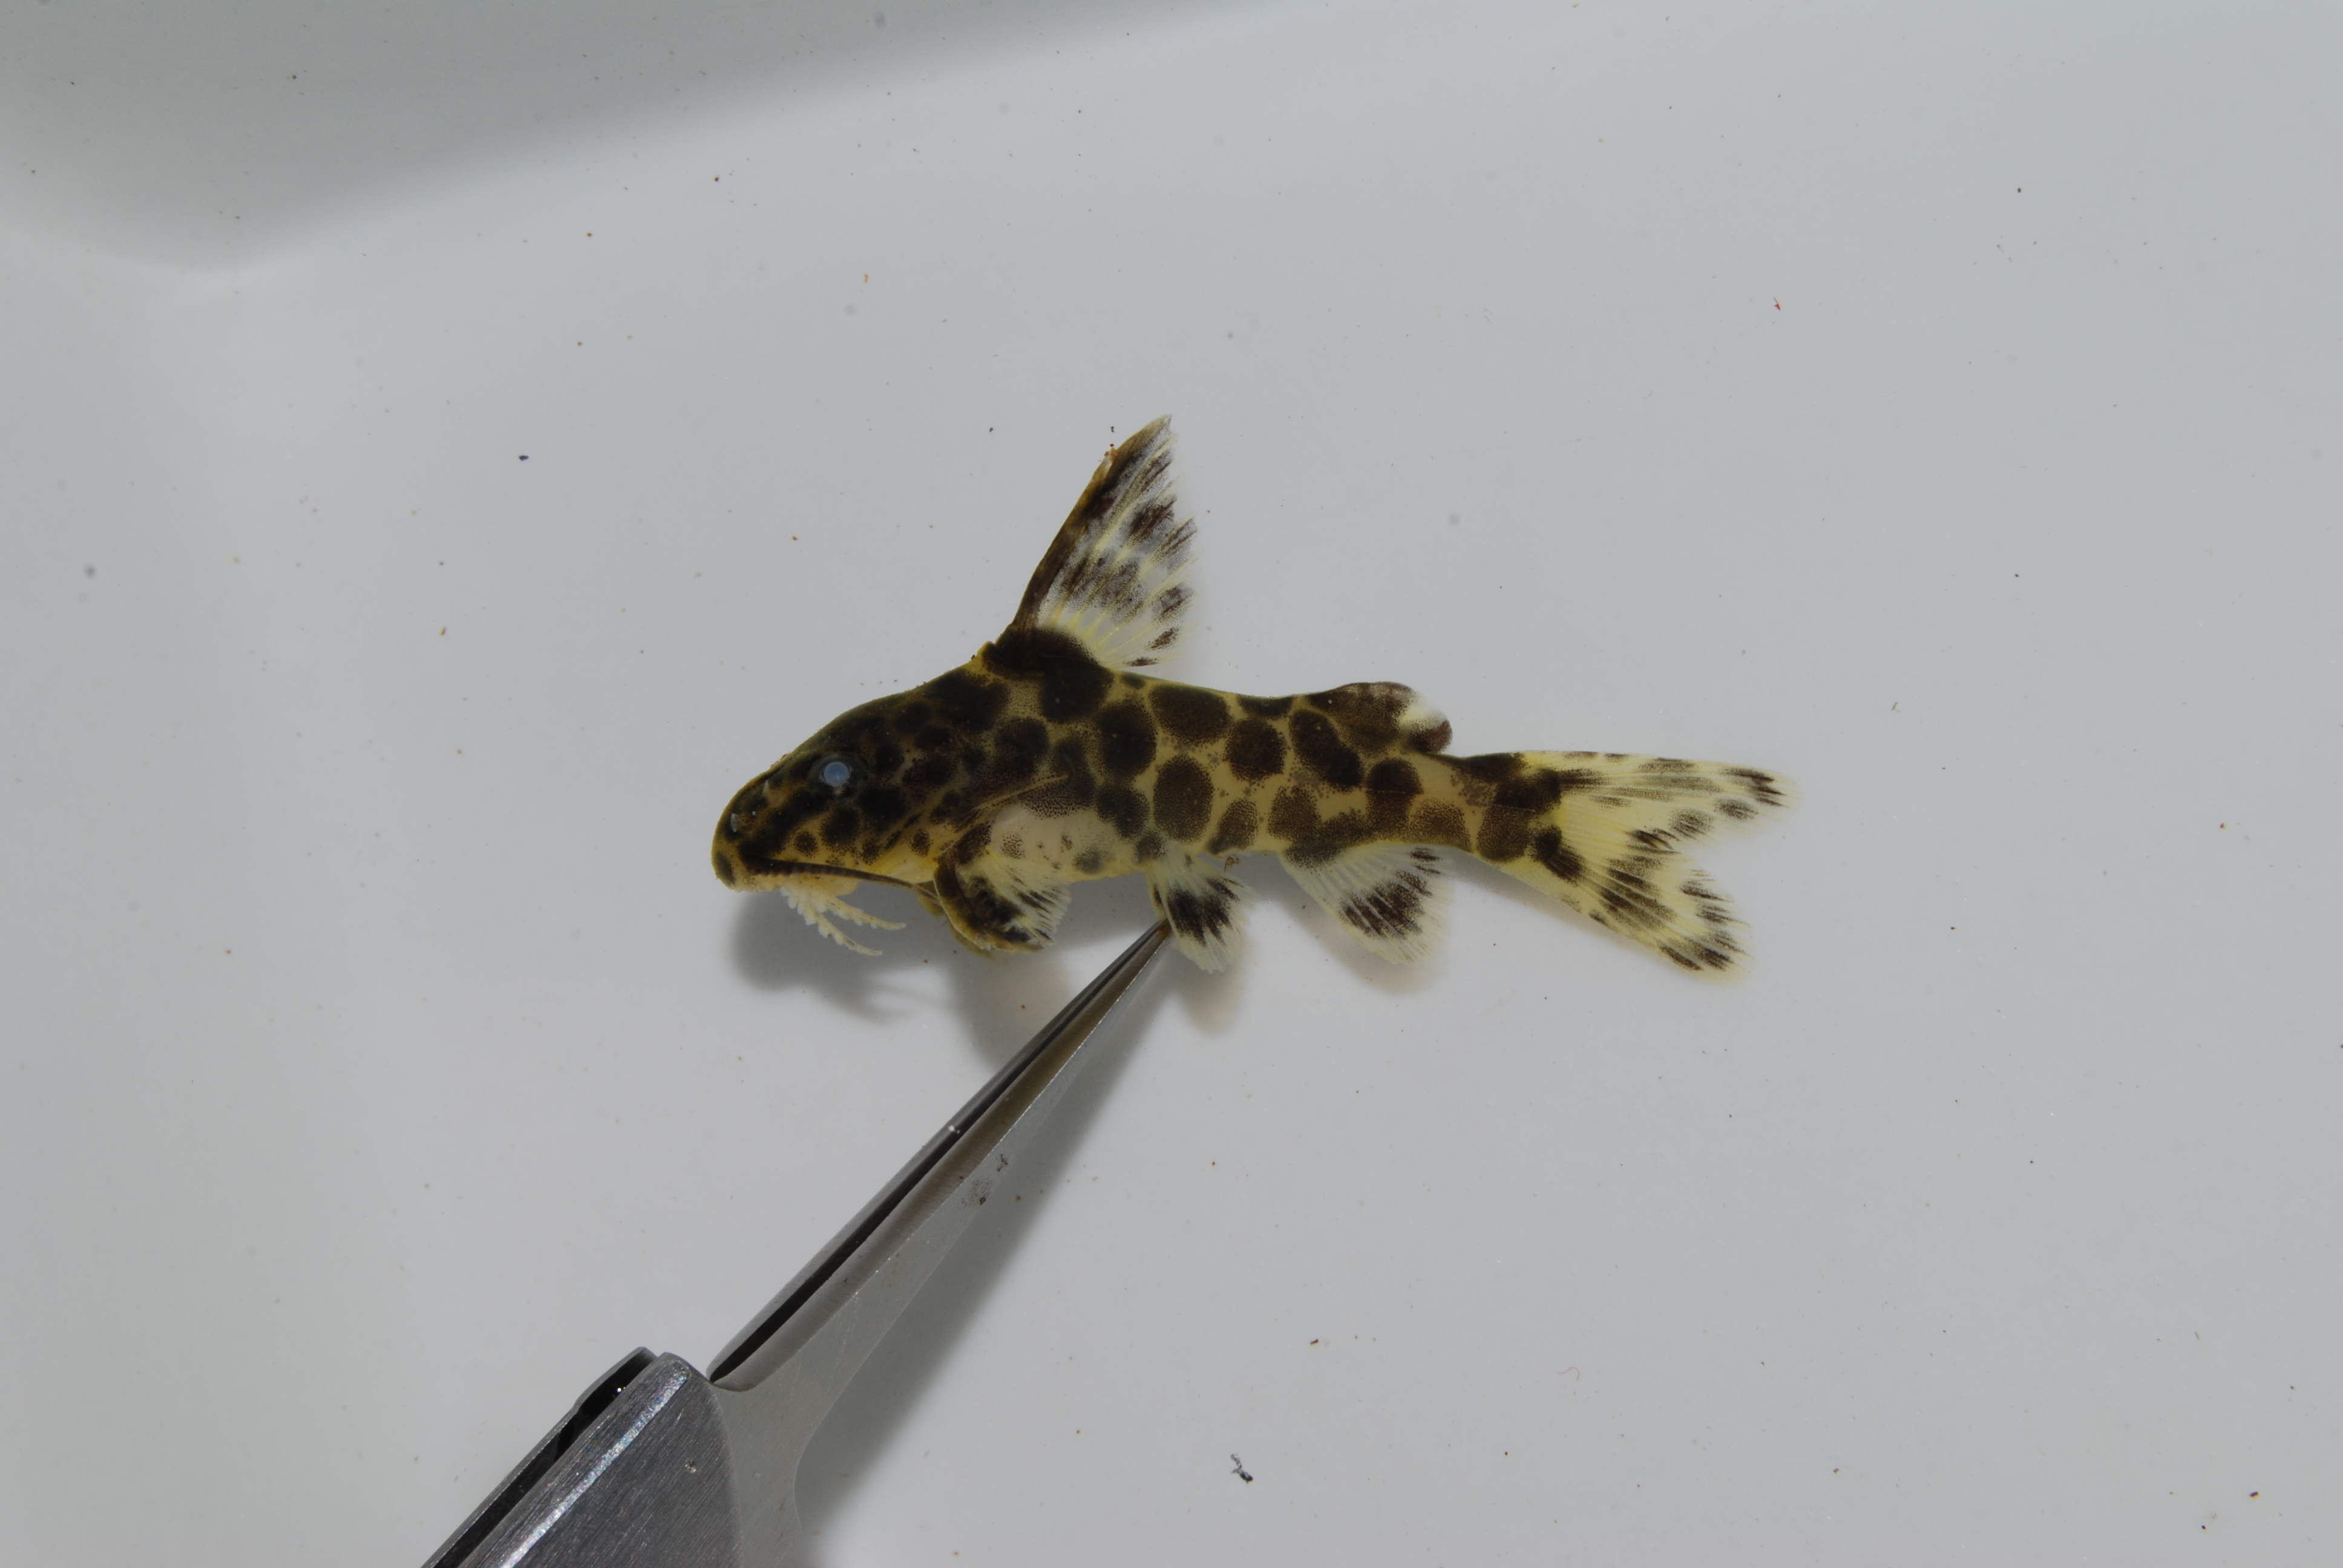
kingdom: Animalia
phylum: Chordata
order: Siluriformes
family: Mochokidae
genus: Synodontis
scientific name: Synodontis macrostigma
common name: Largespot squeaker
